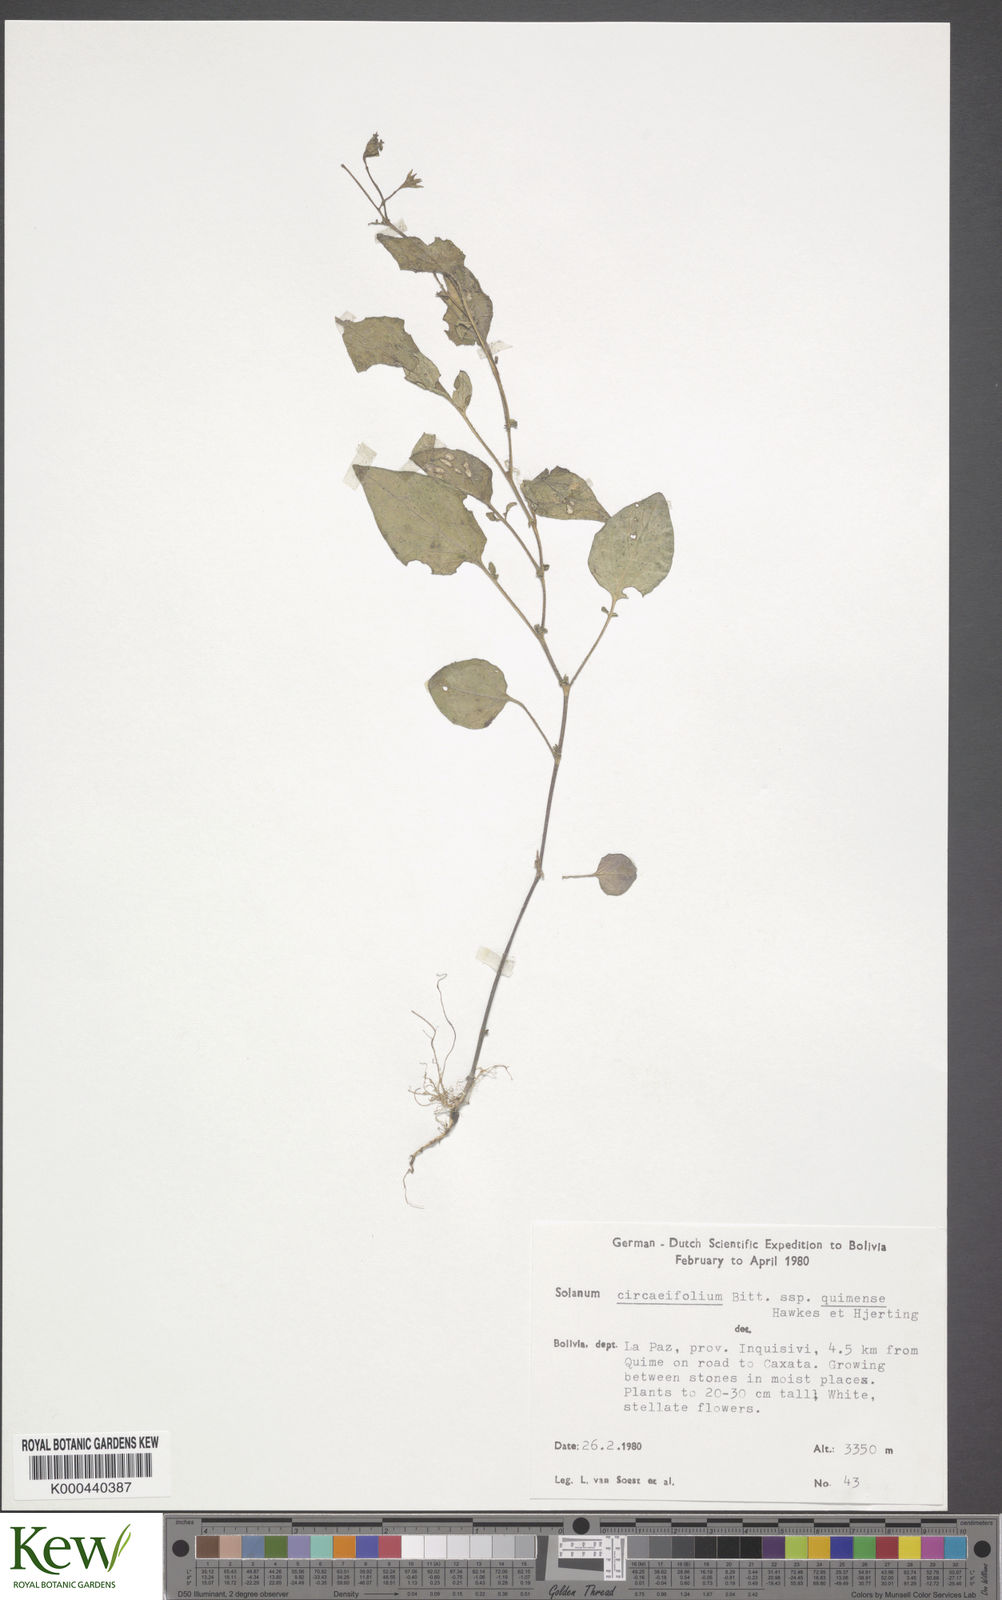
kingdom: Plantae
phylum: Tracheophyta
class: Magnoliopsida
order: Solanales
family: Solanaceae
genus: Solanum
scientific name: Solanum stipuloideum
